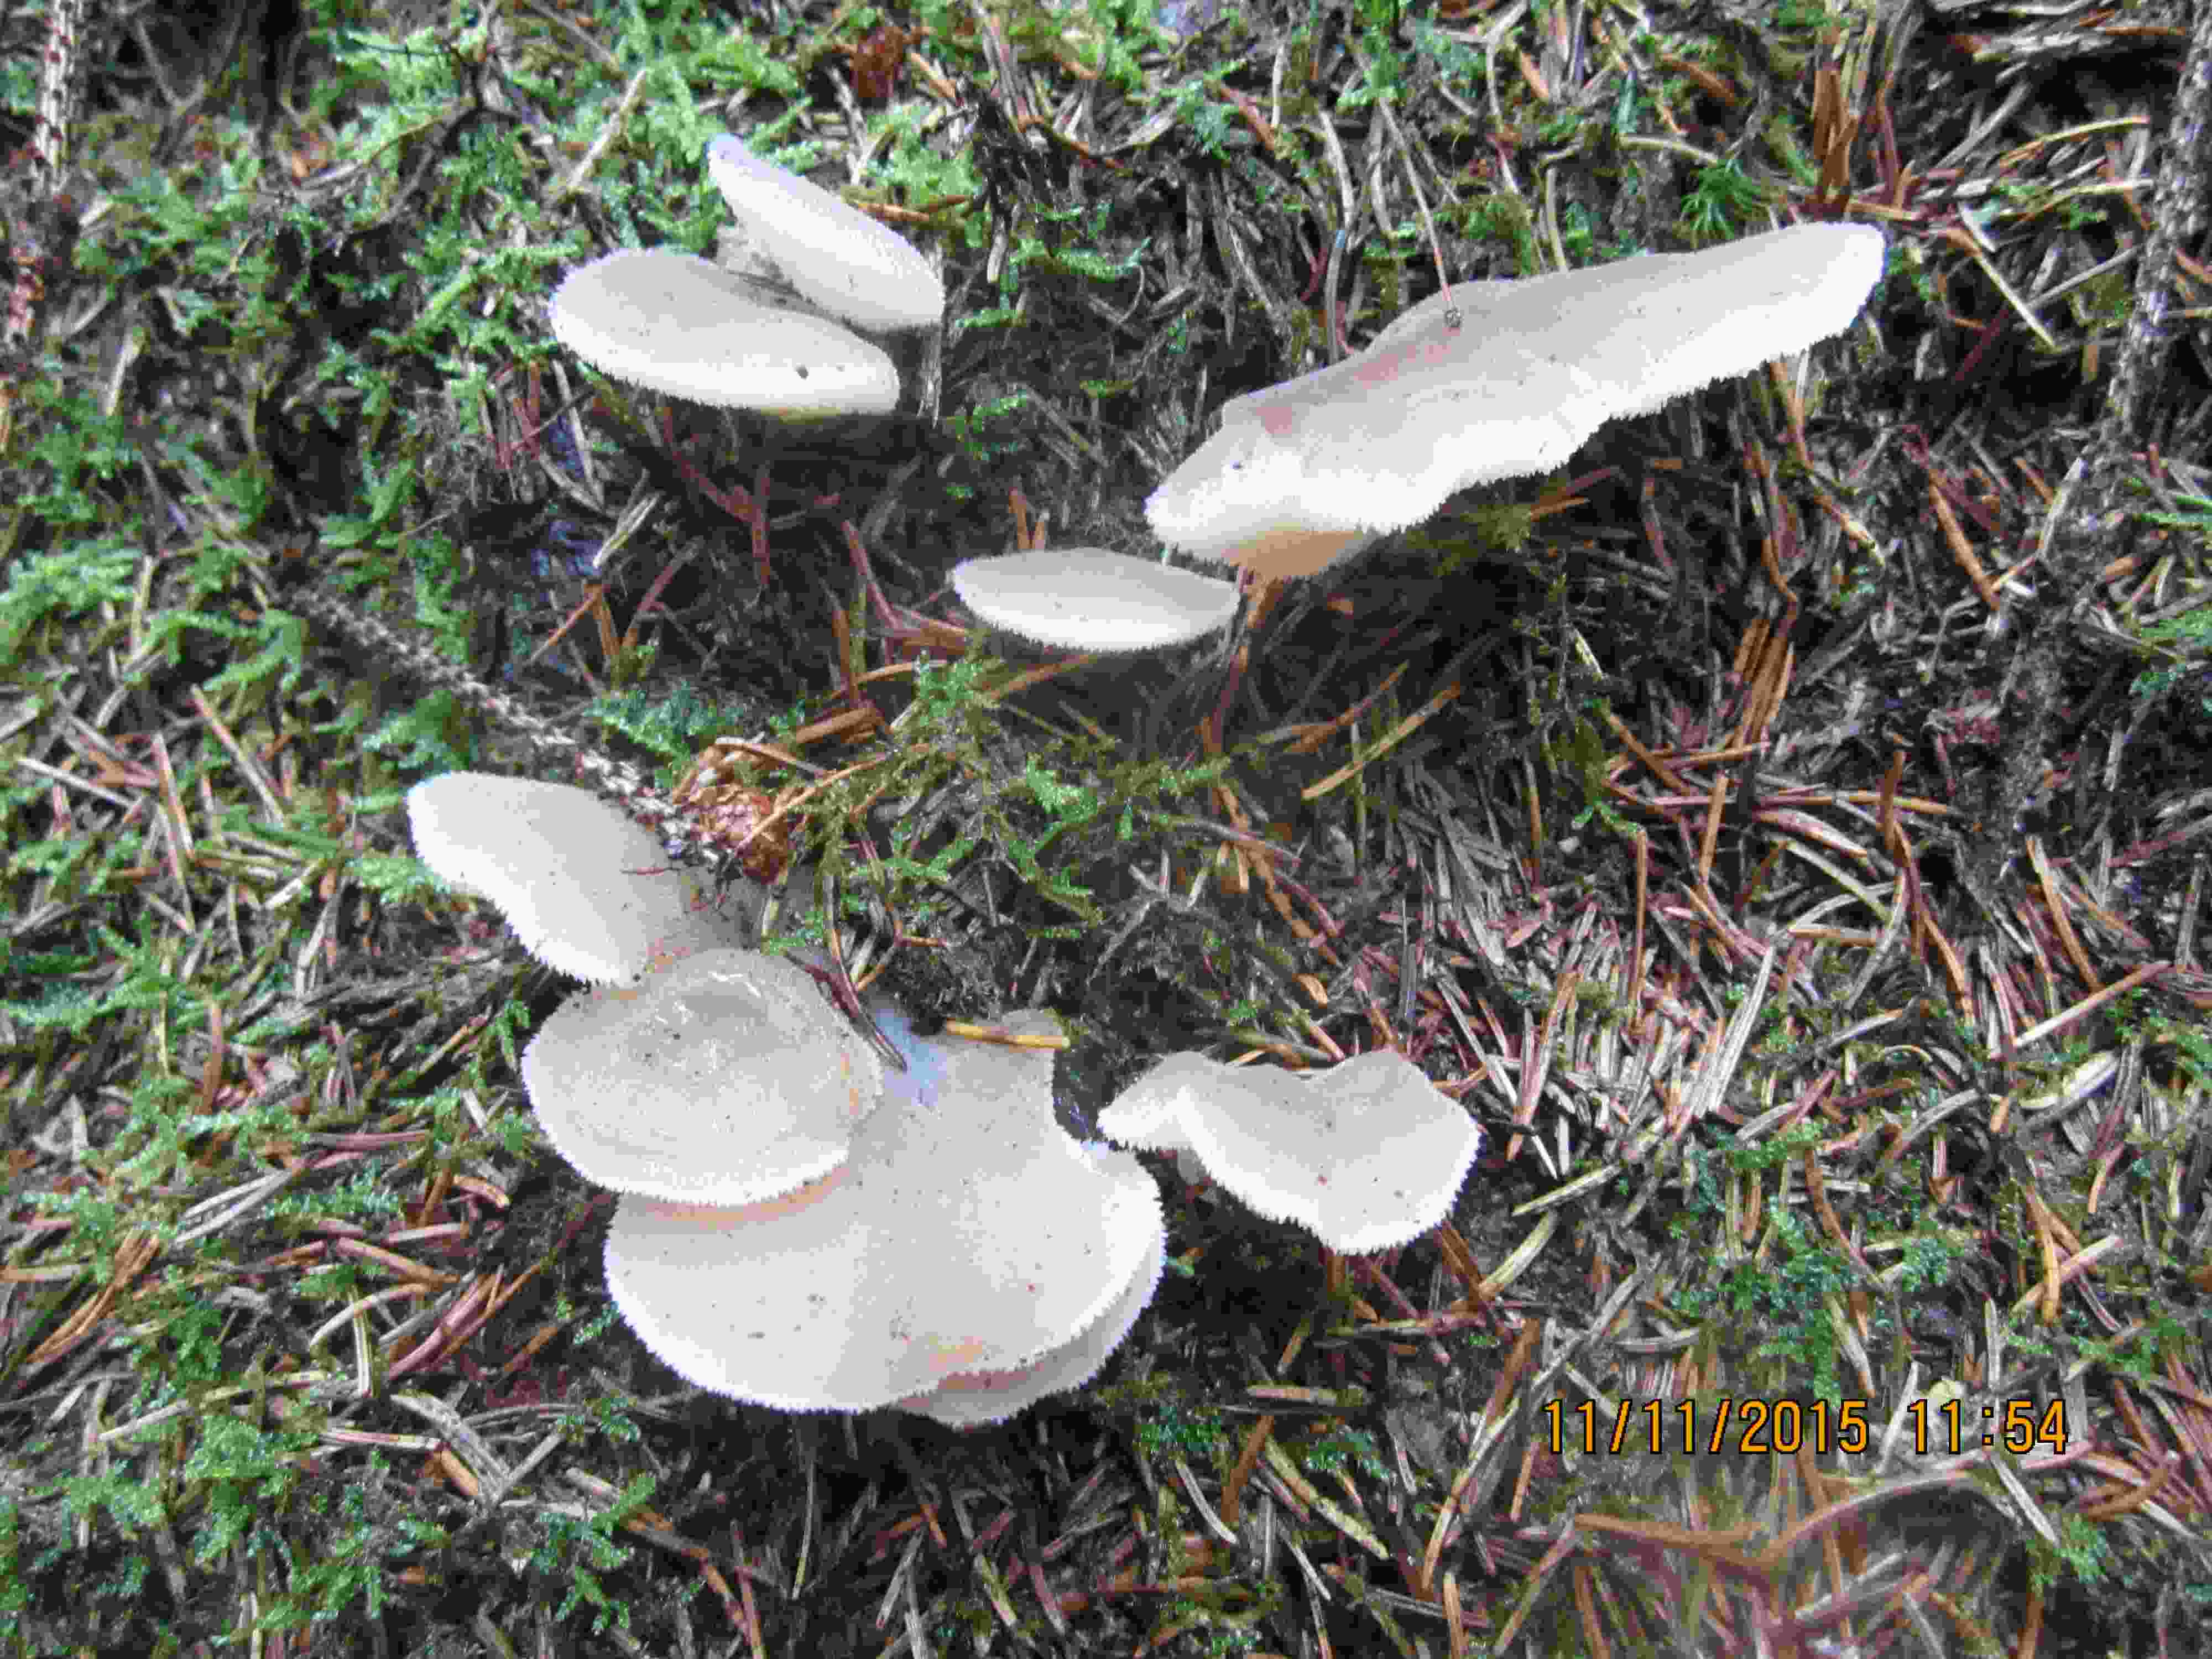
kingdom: Fungi
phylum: Basidiomycota
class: Agaricomycetes
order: Auriculariales
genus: Pseudohydnum
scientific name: Pseudohydnum gelatinosum
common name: bævretand
